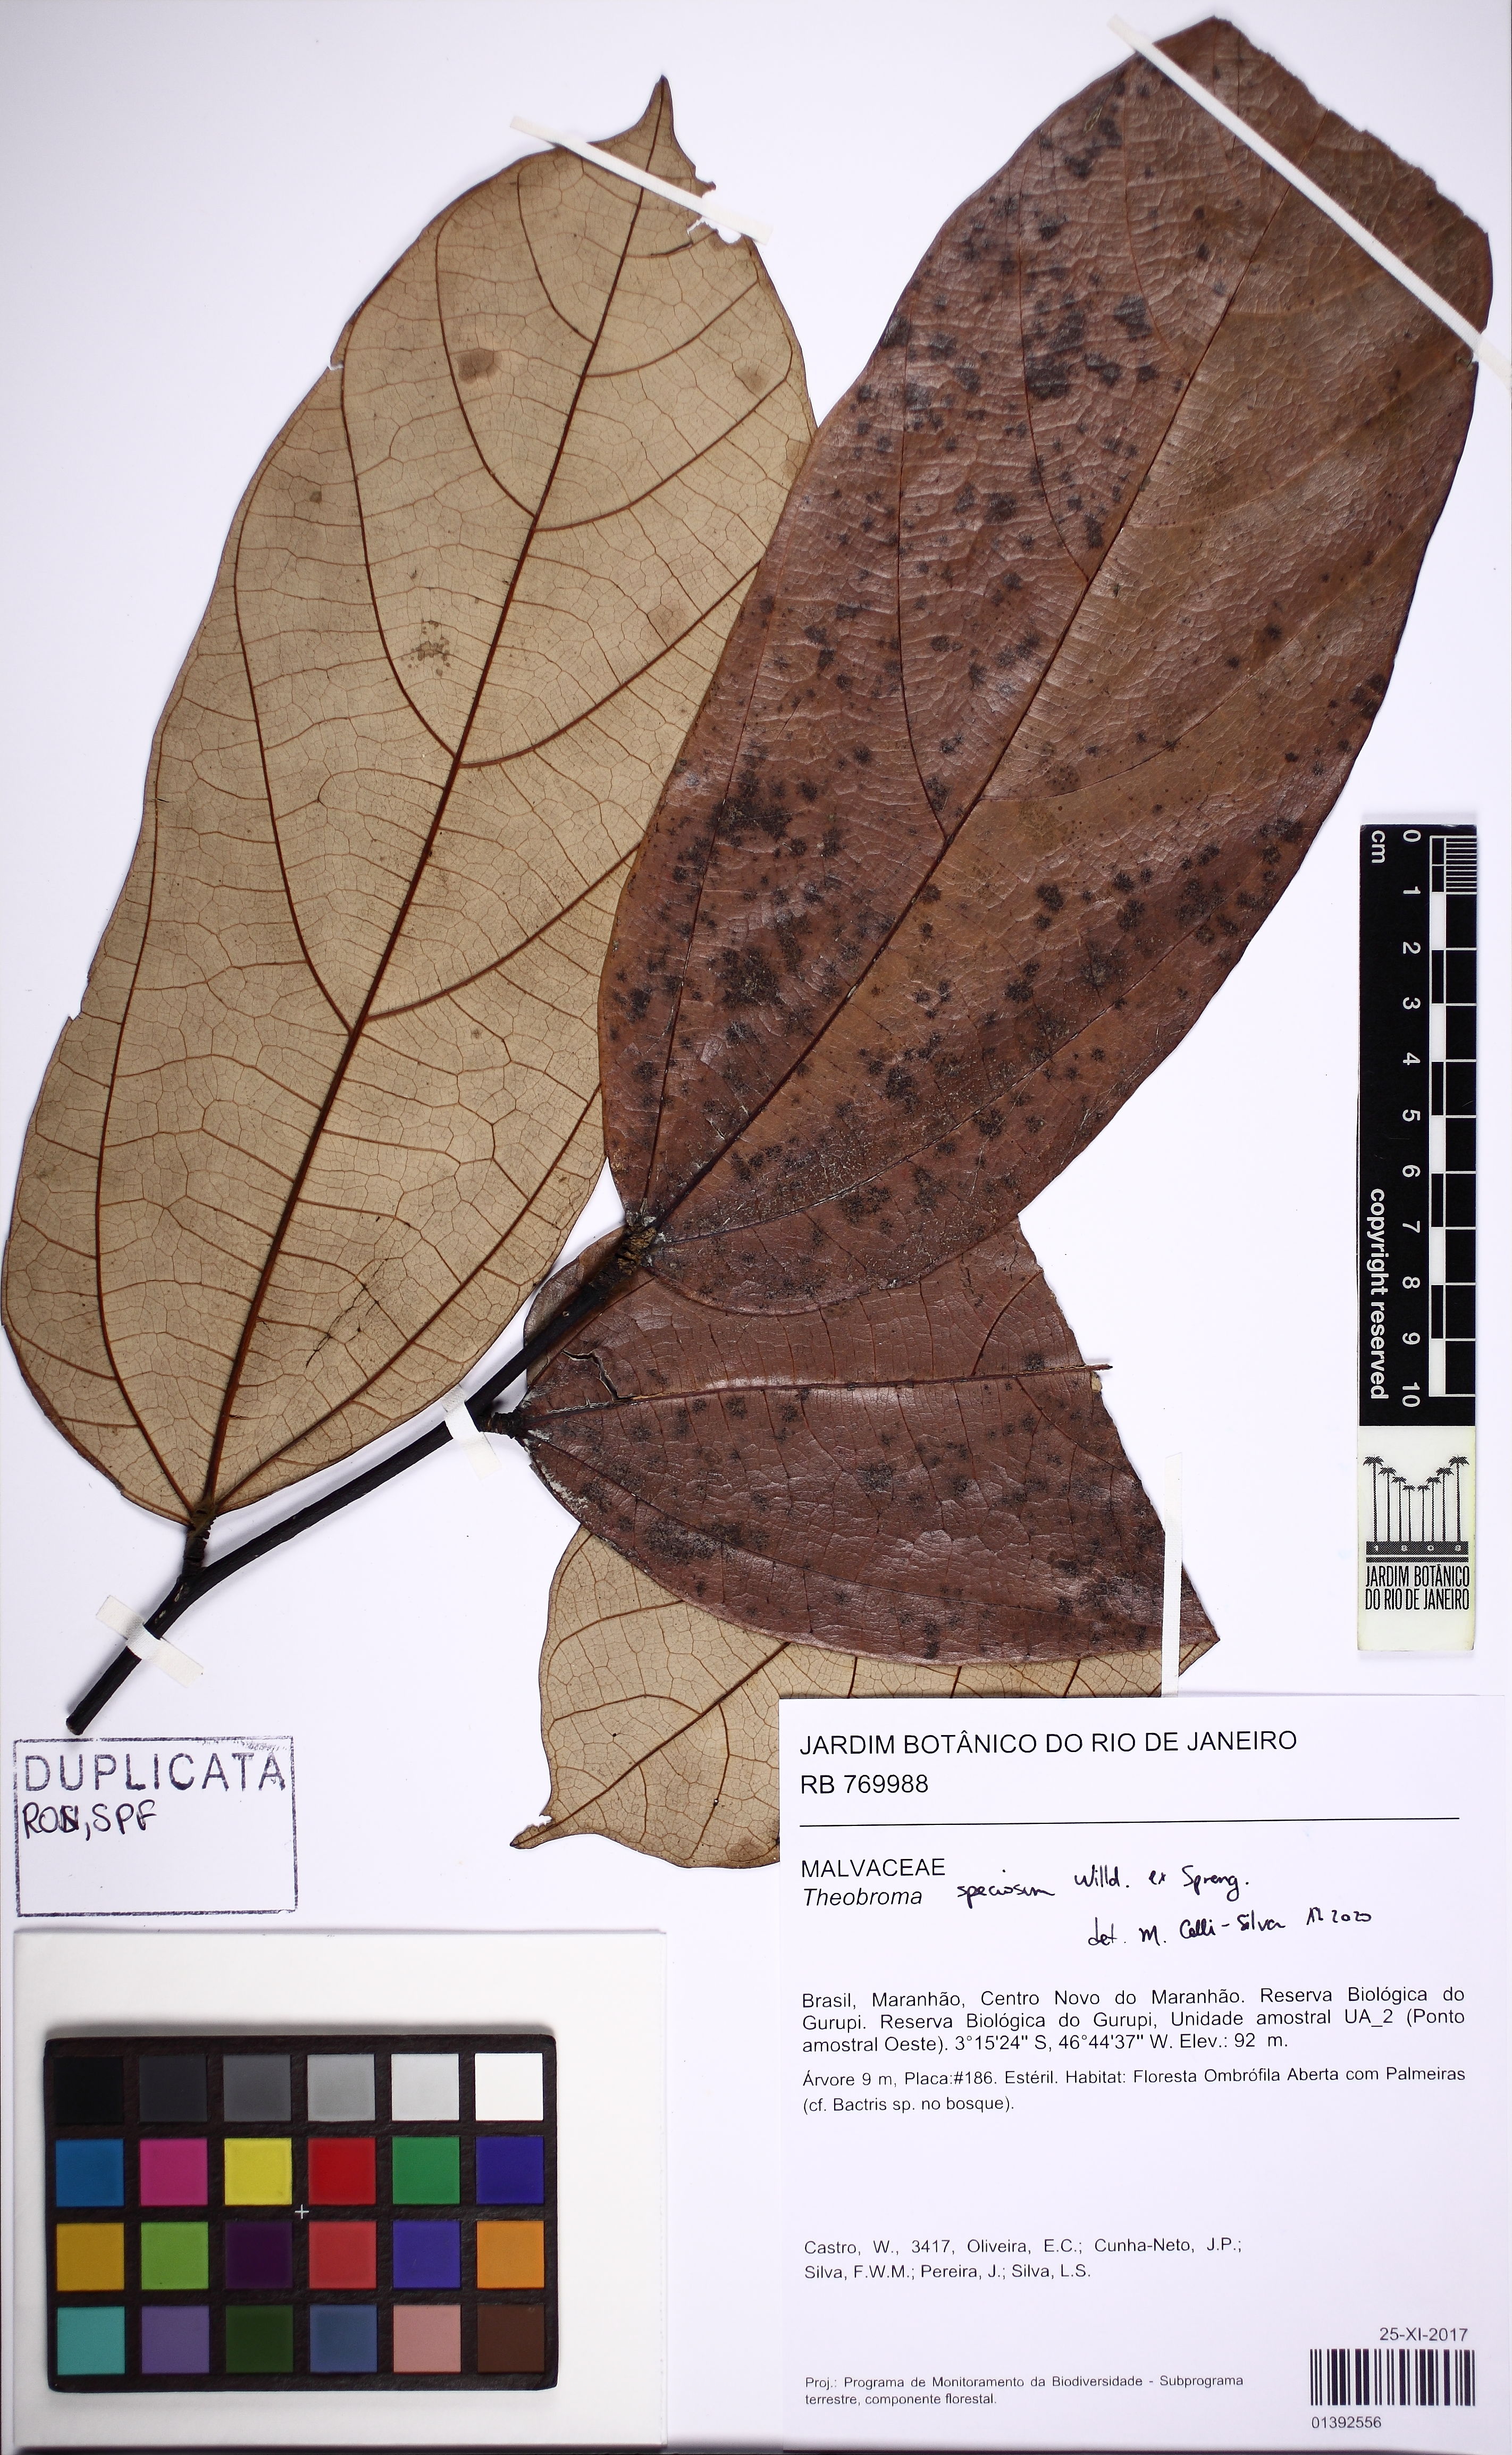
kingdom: Plantae
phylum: Tracheophyta
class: Magnoliopsida
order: Malvales
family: Malvaceae
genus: Theobroma
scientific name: Theobroma speciosum
